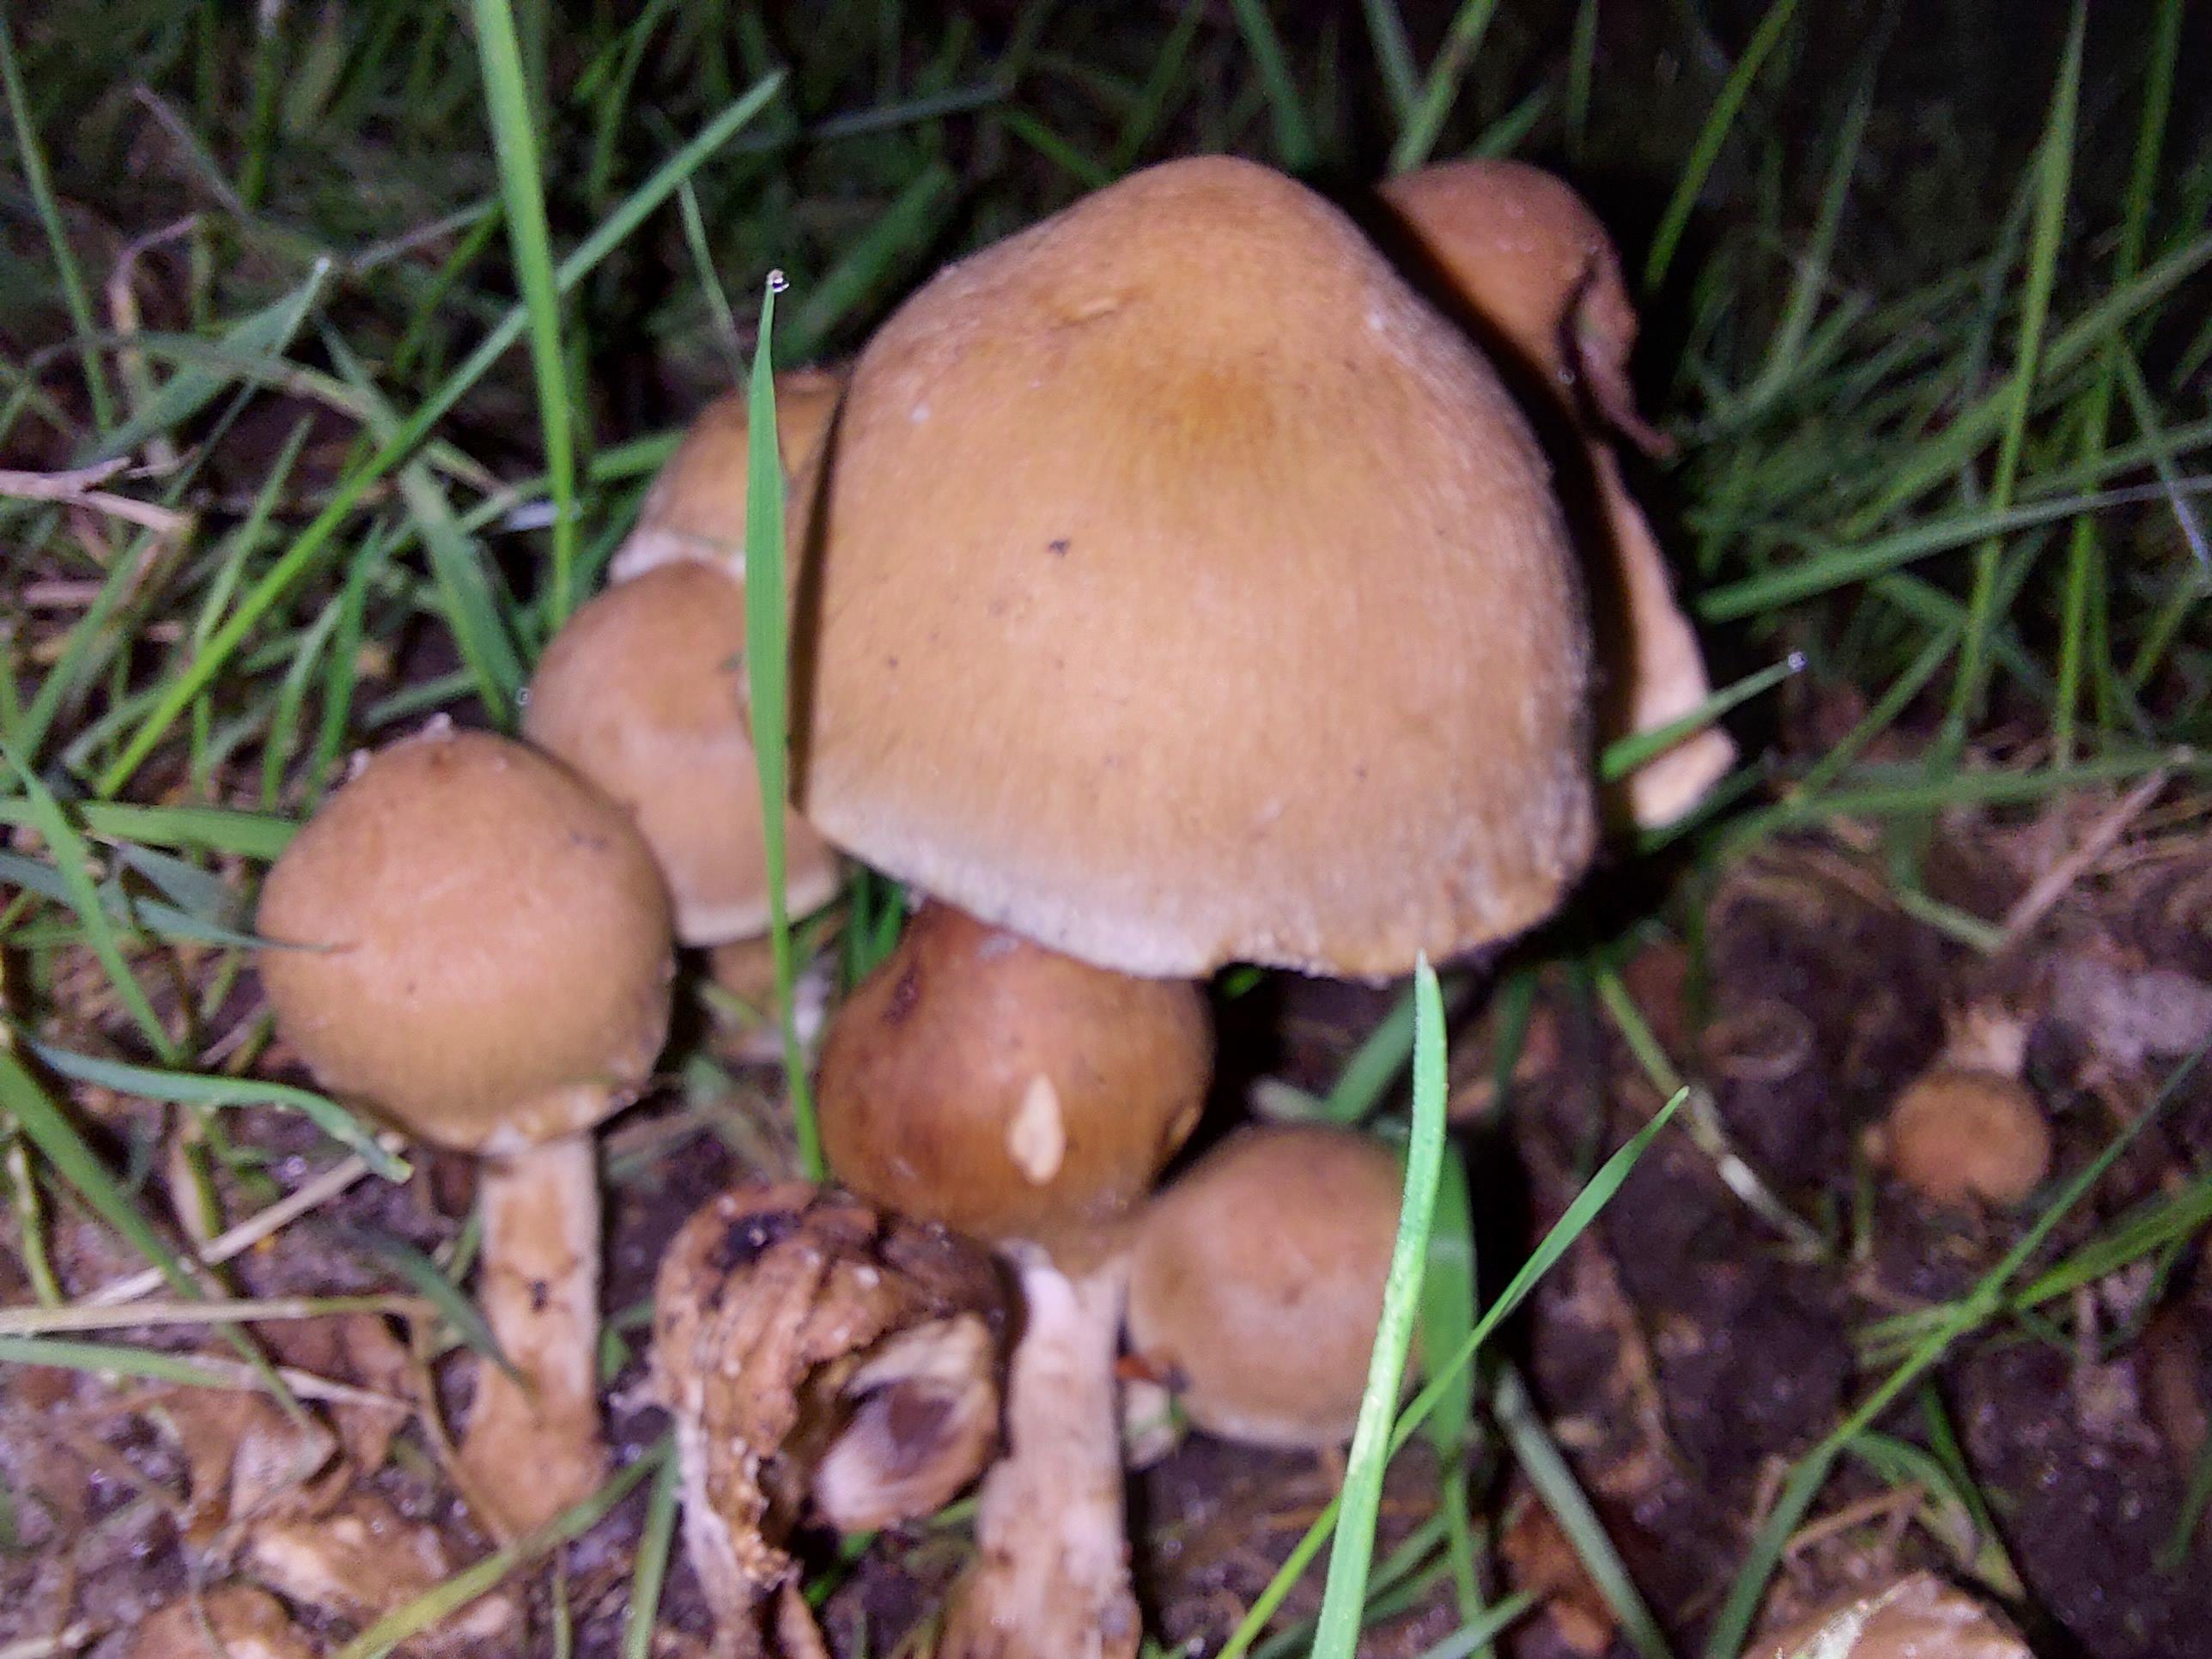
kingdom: Fungi
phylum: Basidiomycota
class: Agaricomycetes
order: Agaricales
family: Psathyrellaceae
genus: Lacrymaria
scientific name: Lacrymaria lacrymabunda
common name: grædende mørkhat
